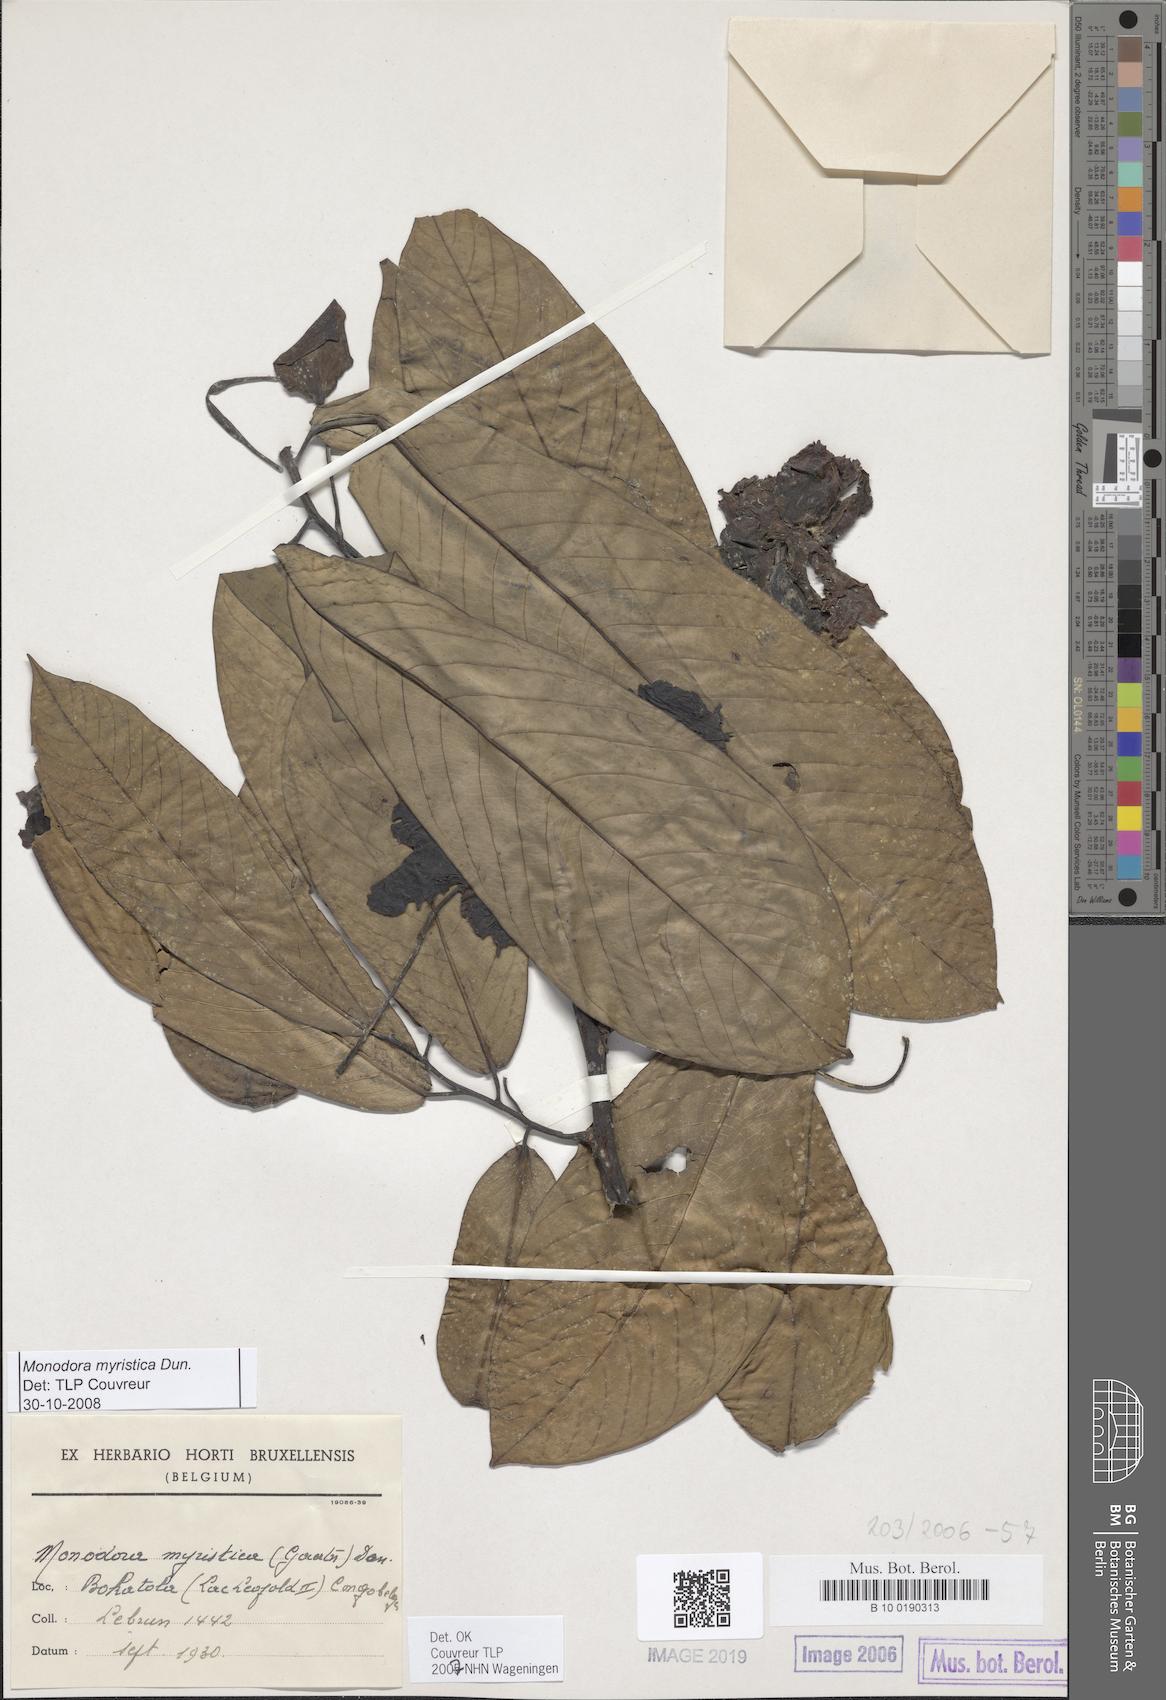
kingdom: Plantae
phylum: Tracheophyta
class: Magnoliopsida
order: Magnoliales
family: Annonaceae
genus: Monodora
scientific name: Monodora myristica
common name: African nutmeg
